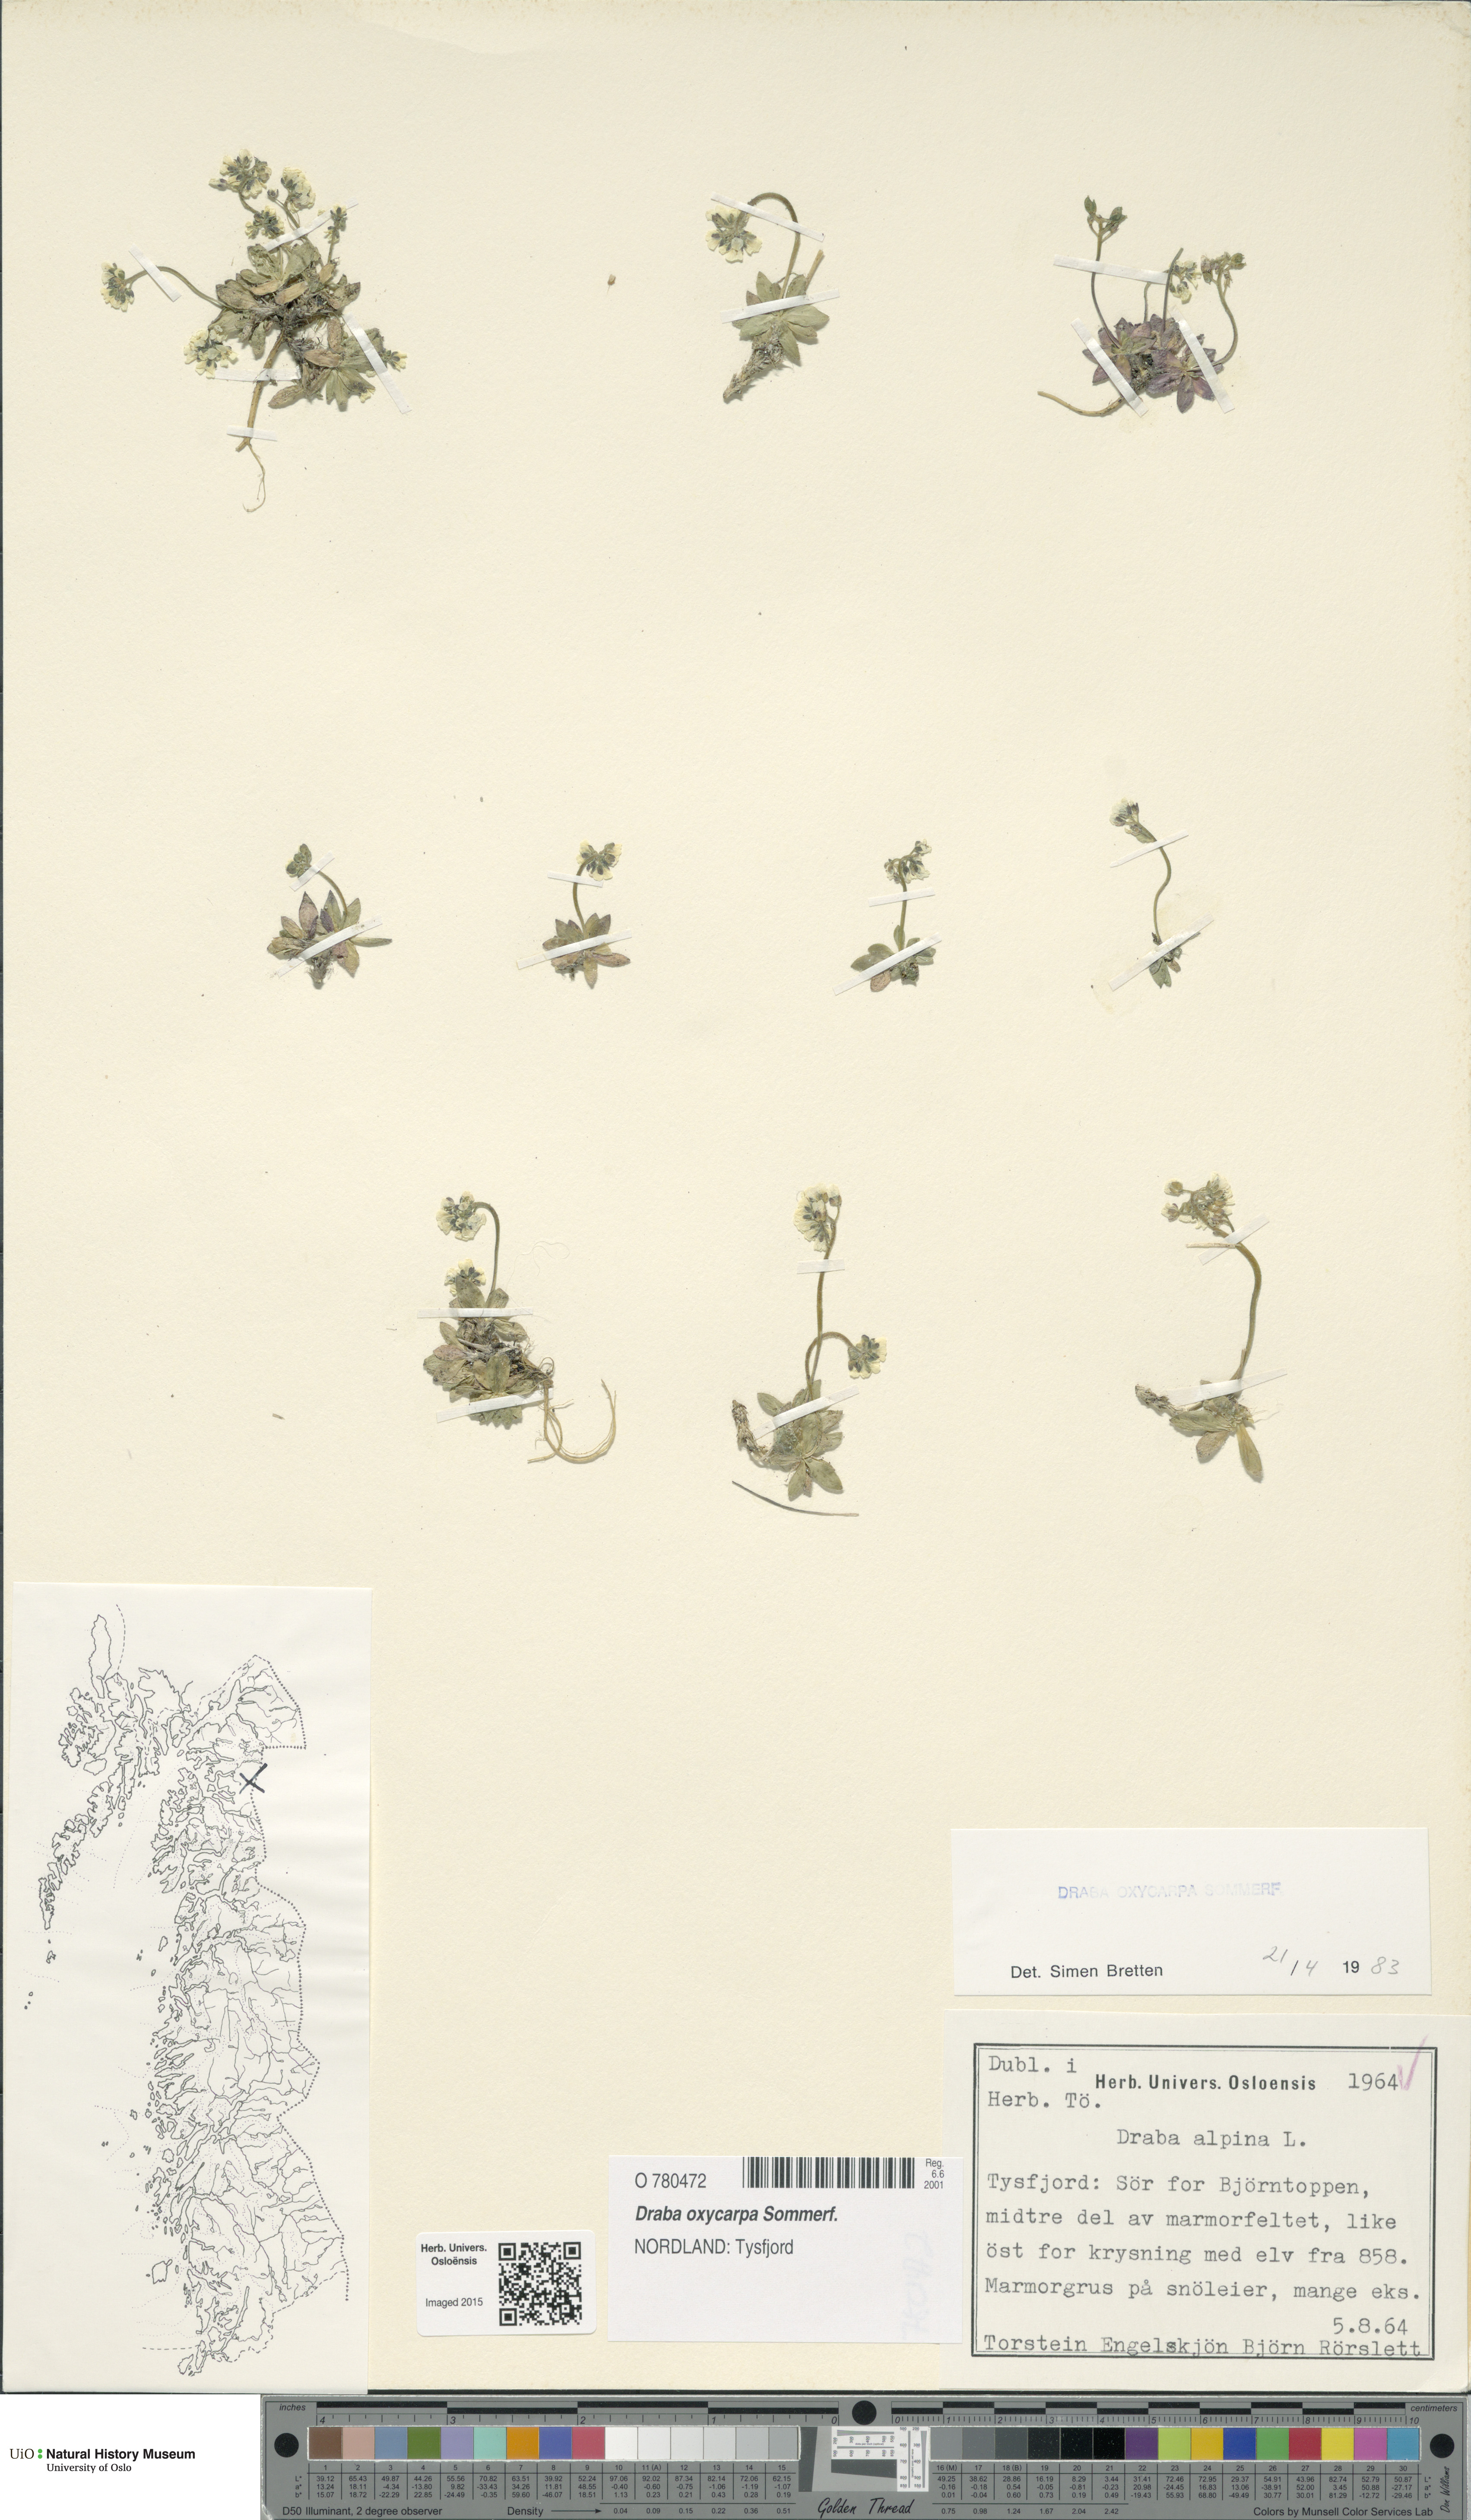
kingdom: Plantae
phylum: Tracheophyta
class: Magnoliopsida
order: Brassicales
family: Brassicaceae
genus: Draba
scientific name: Draba oxycarpa
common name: Sharp-fruited whitlow-grass
